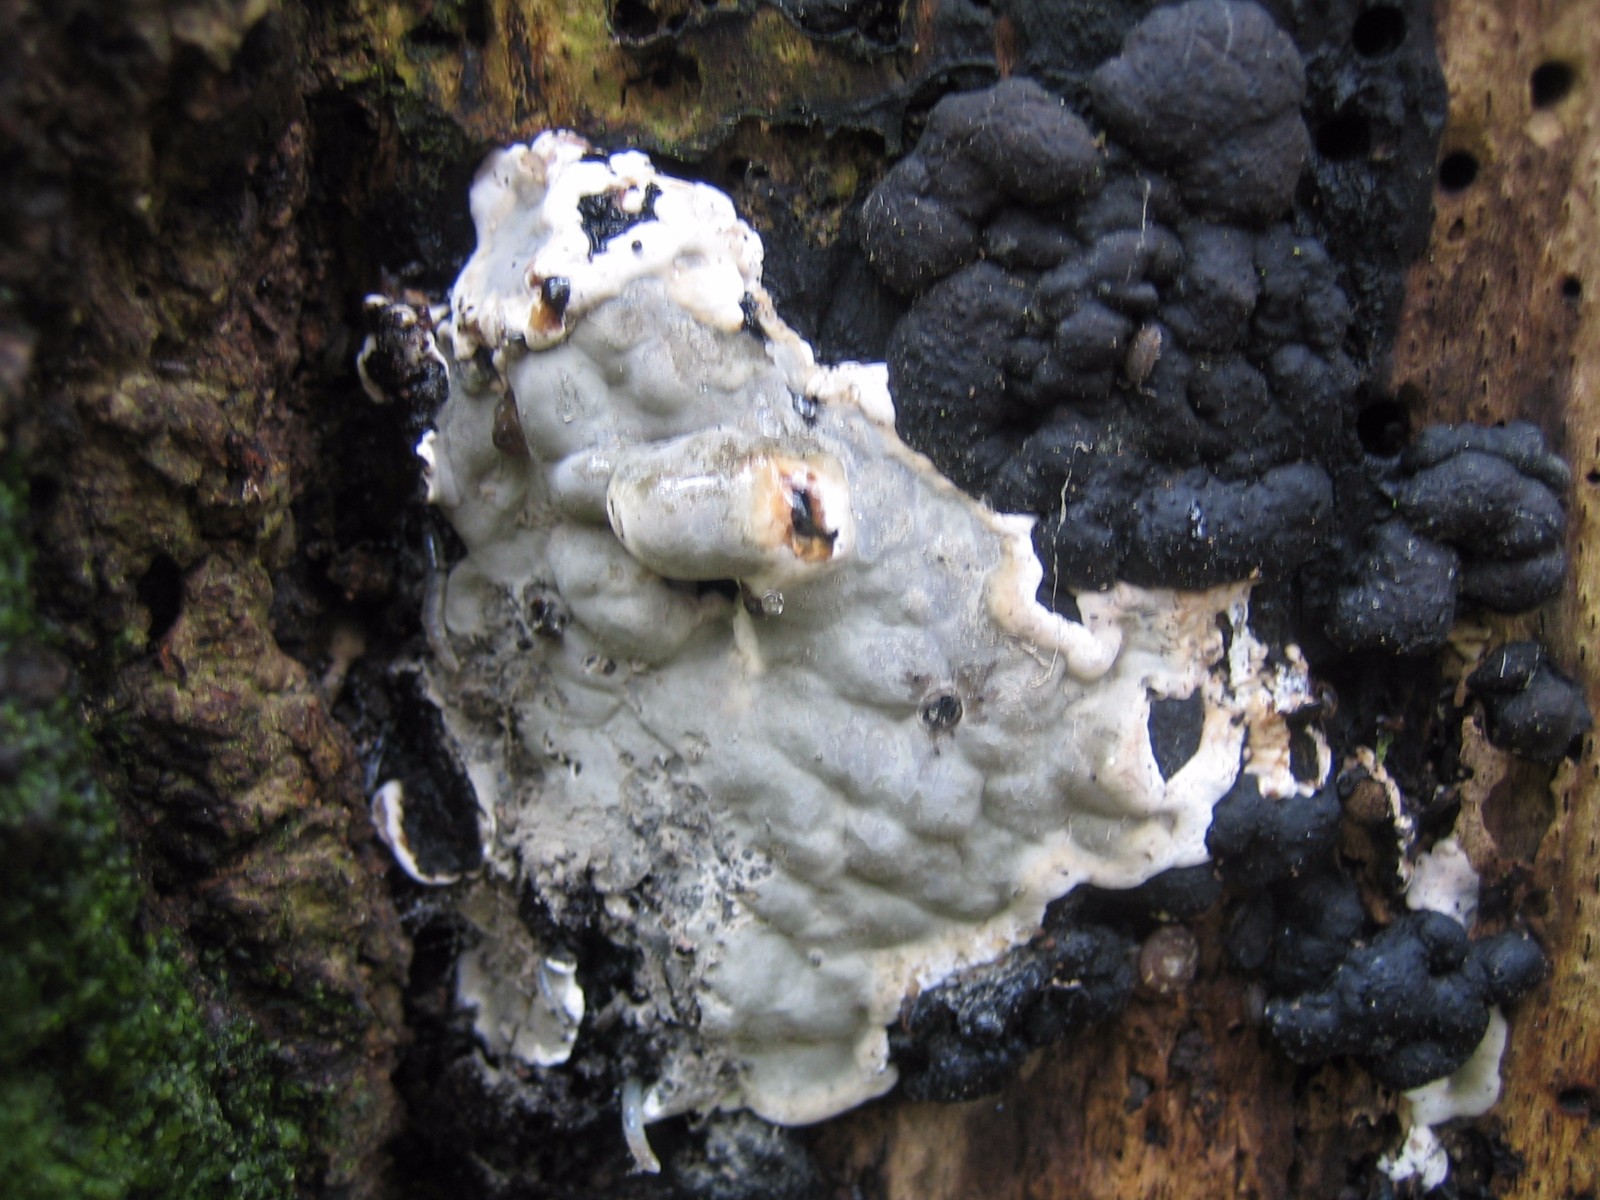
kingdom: Fungi
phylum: Ascomycota
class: Sordariomycetes
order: Xylariales
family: Xylariaceae
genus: Kretzschmaria
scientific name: Kretzschmaria deusta
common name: stor kulsvamp
